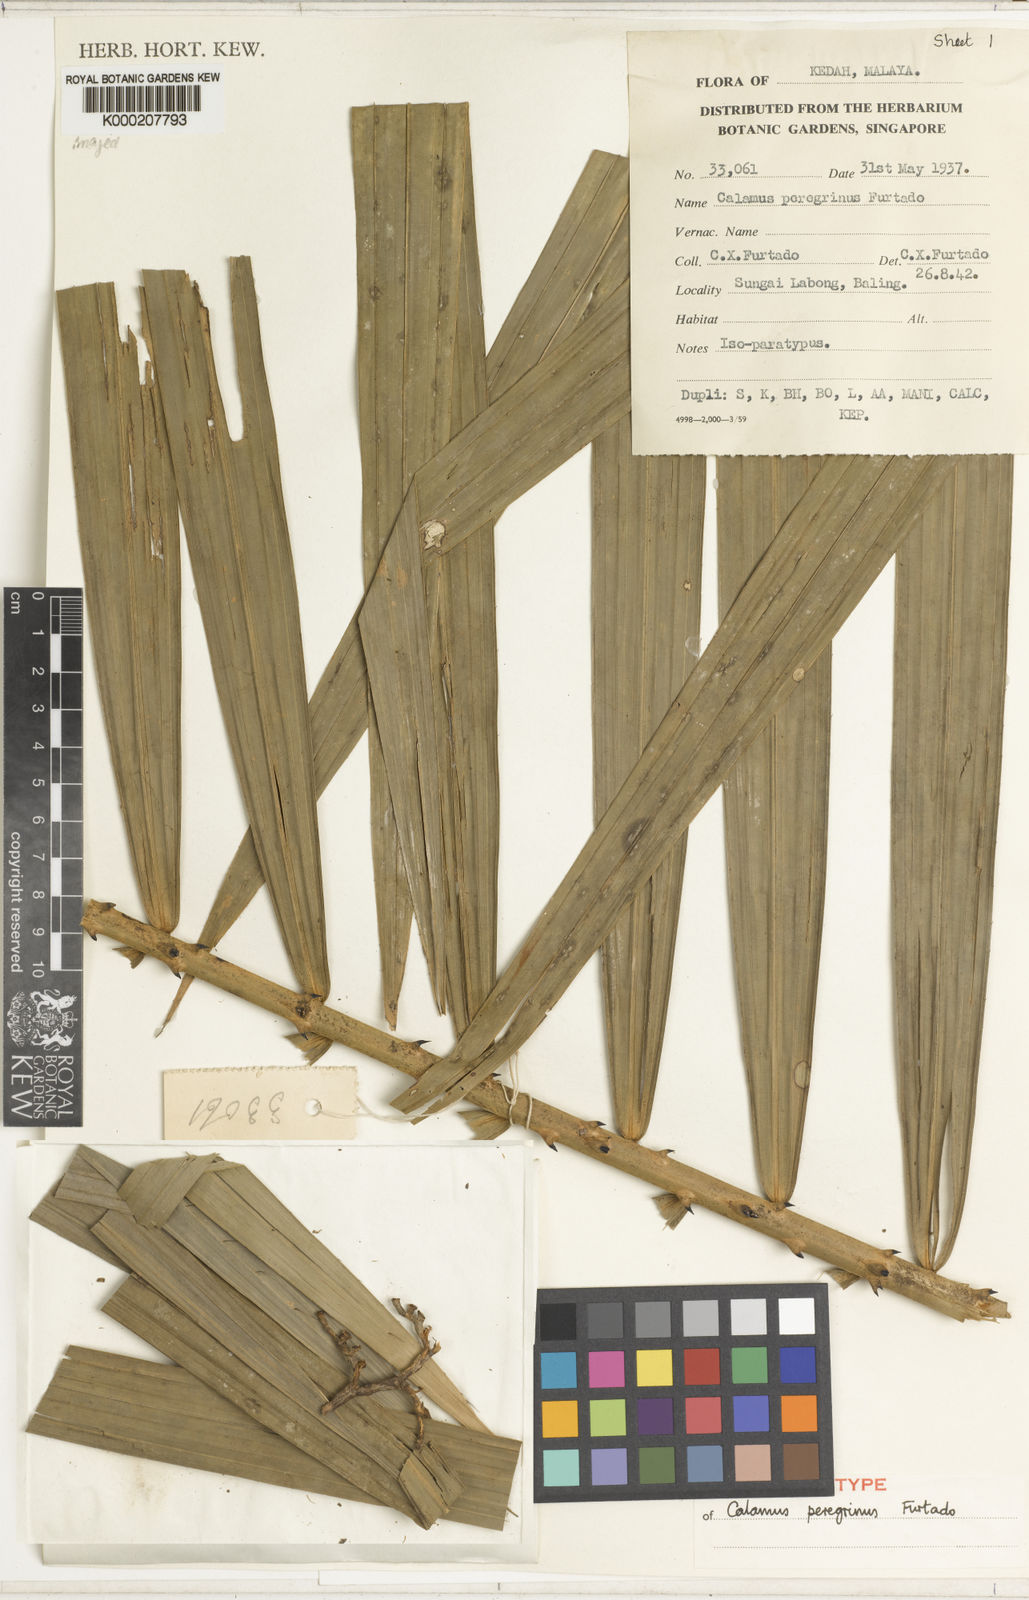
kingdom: Plantae
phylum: Tracheophyta
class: Liliopsida
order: Arecales
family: Arecaceae
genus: Calamus
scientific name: Calamus peregrinus
